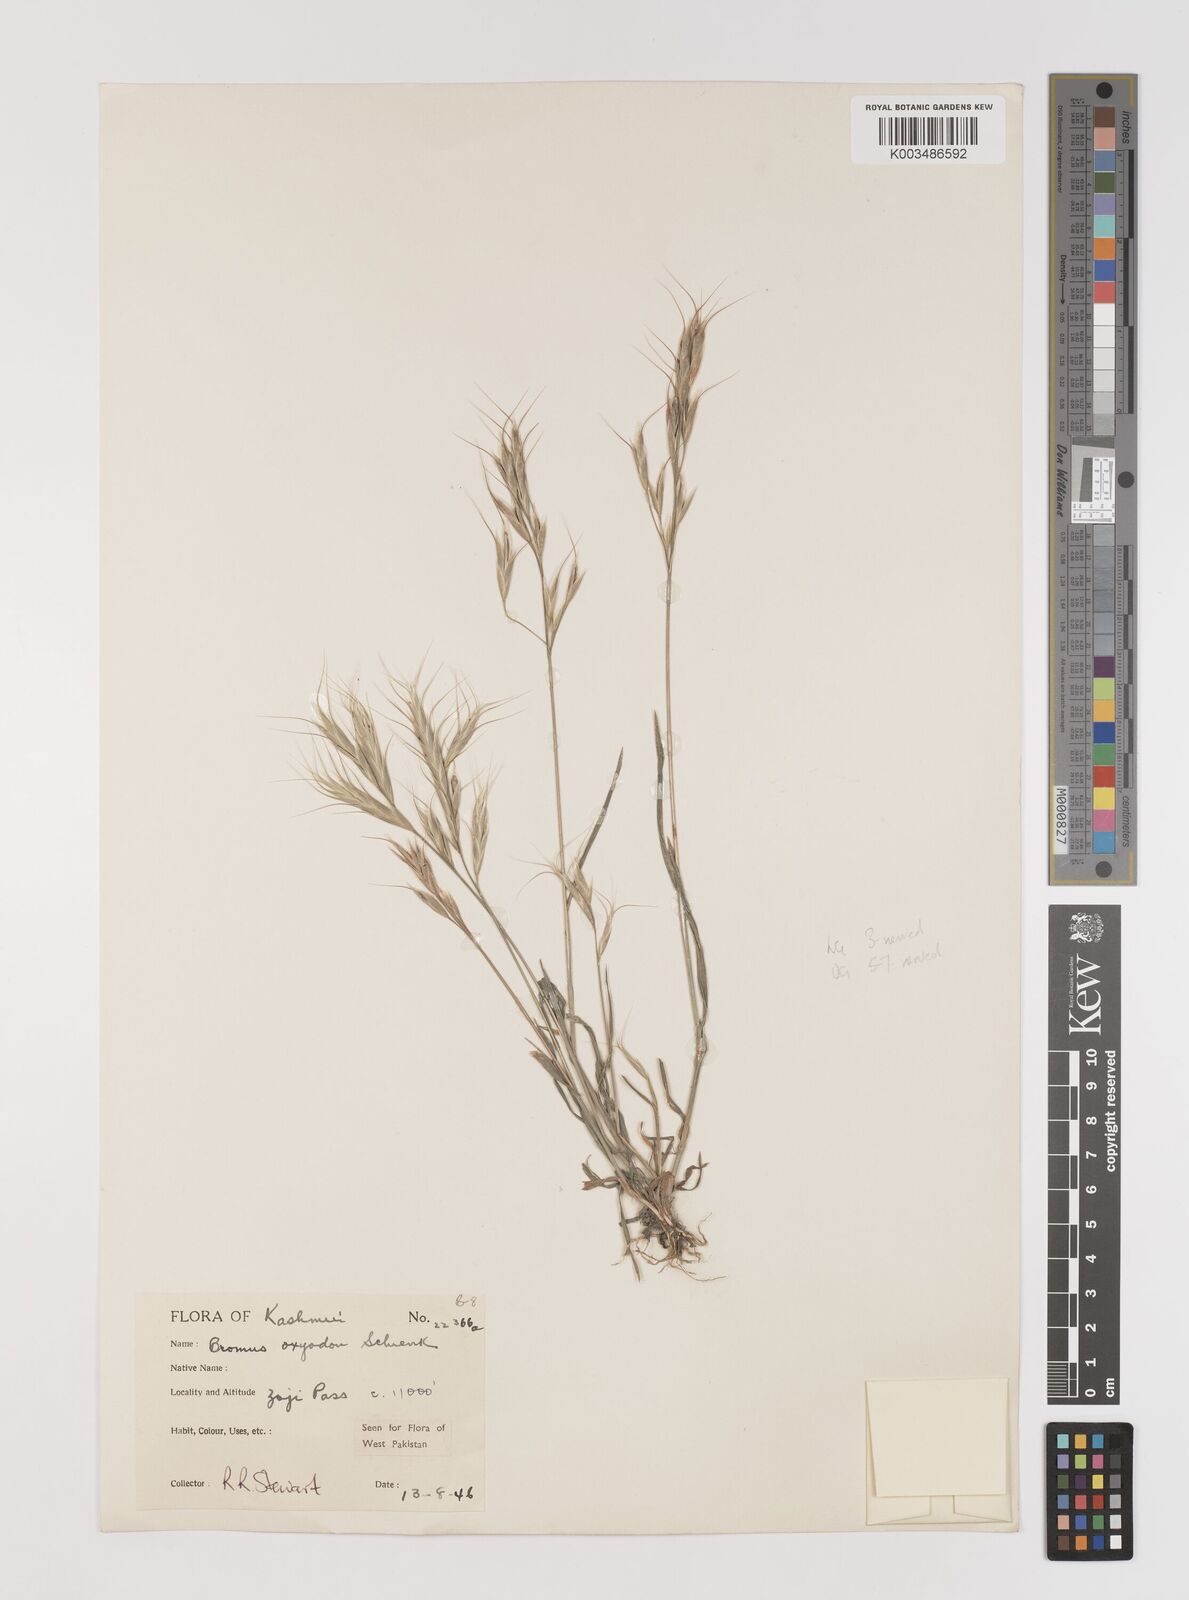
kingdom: Plantae
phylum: Tracheophyta
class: Liliopsida
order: Poales
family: Poaceae
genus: Bromus
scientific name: Bromus oxyodon
